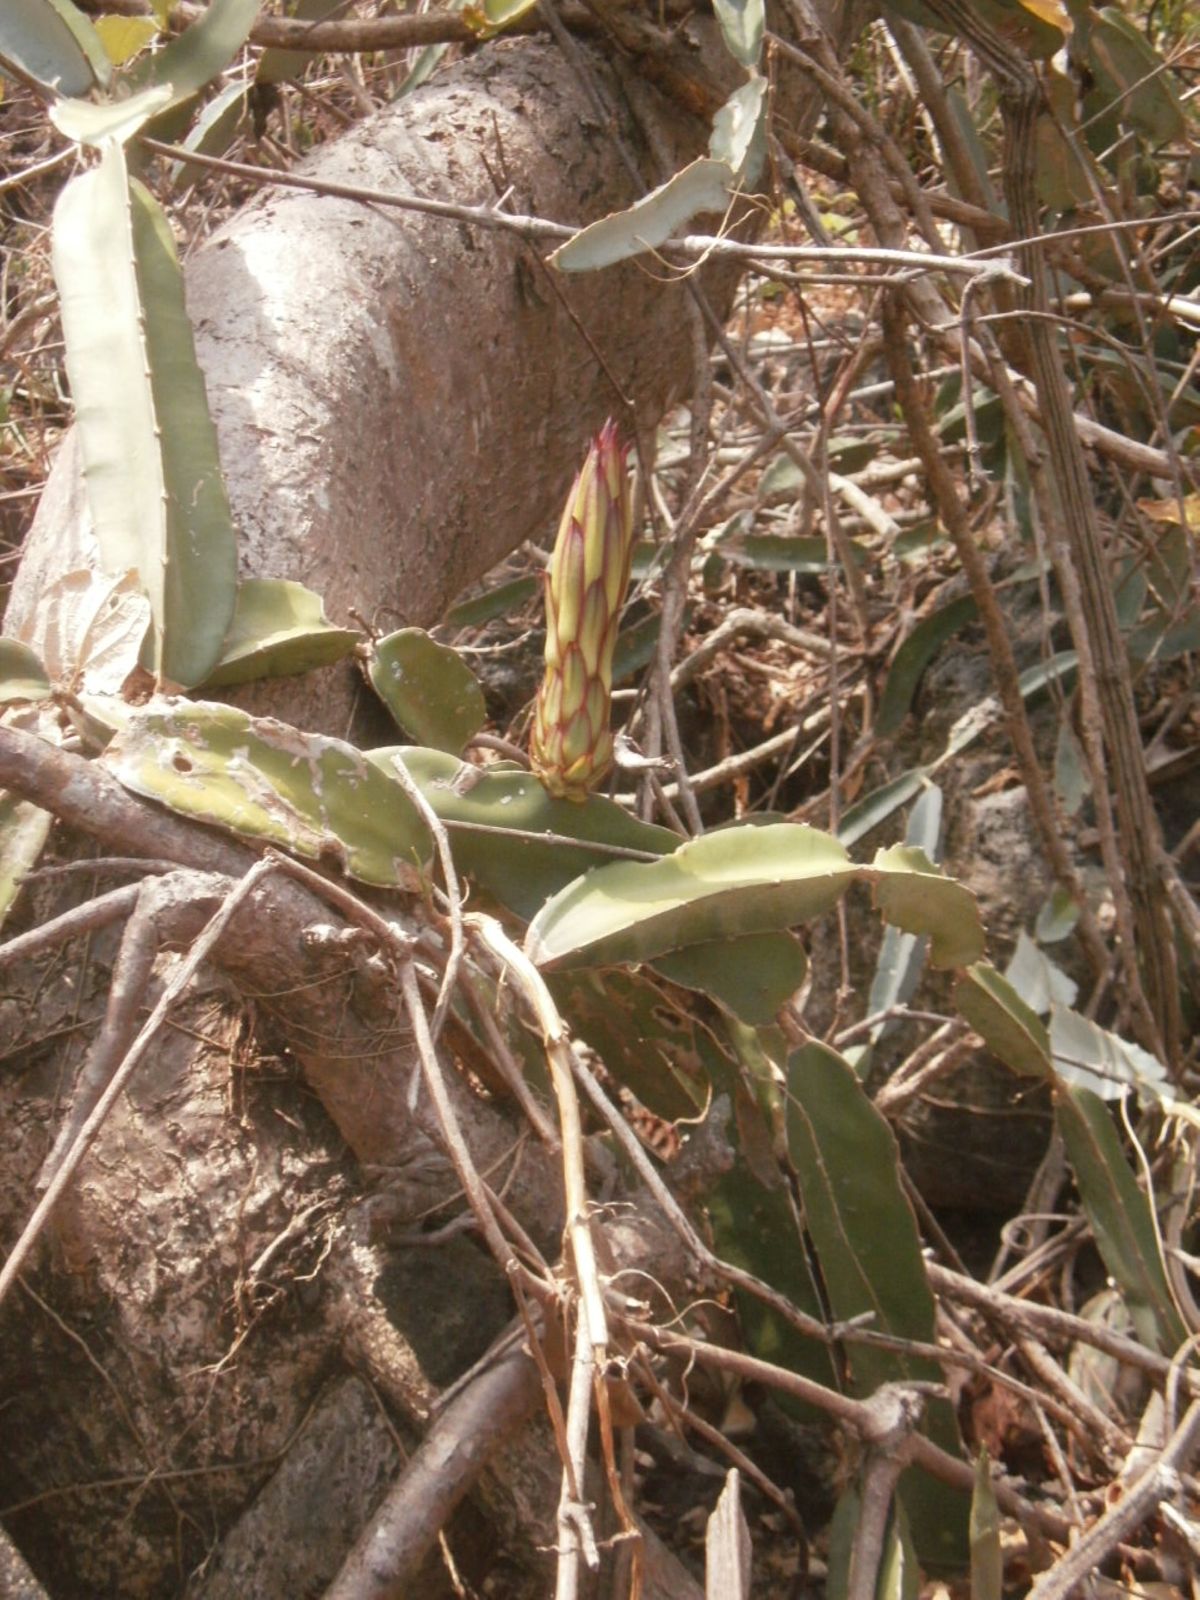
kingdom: Plantae
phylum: Tracheophyta
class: Magnoliopsida
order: Caryophyllales
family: Cactaceae
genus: Selenicereus
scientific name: Selenicereus undatus
